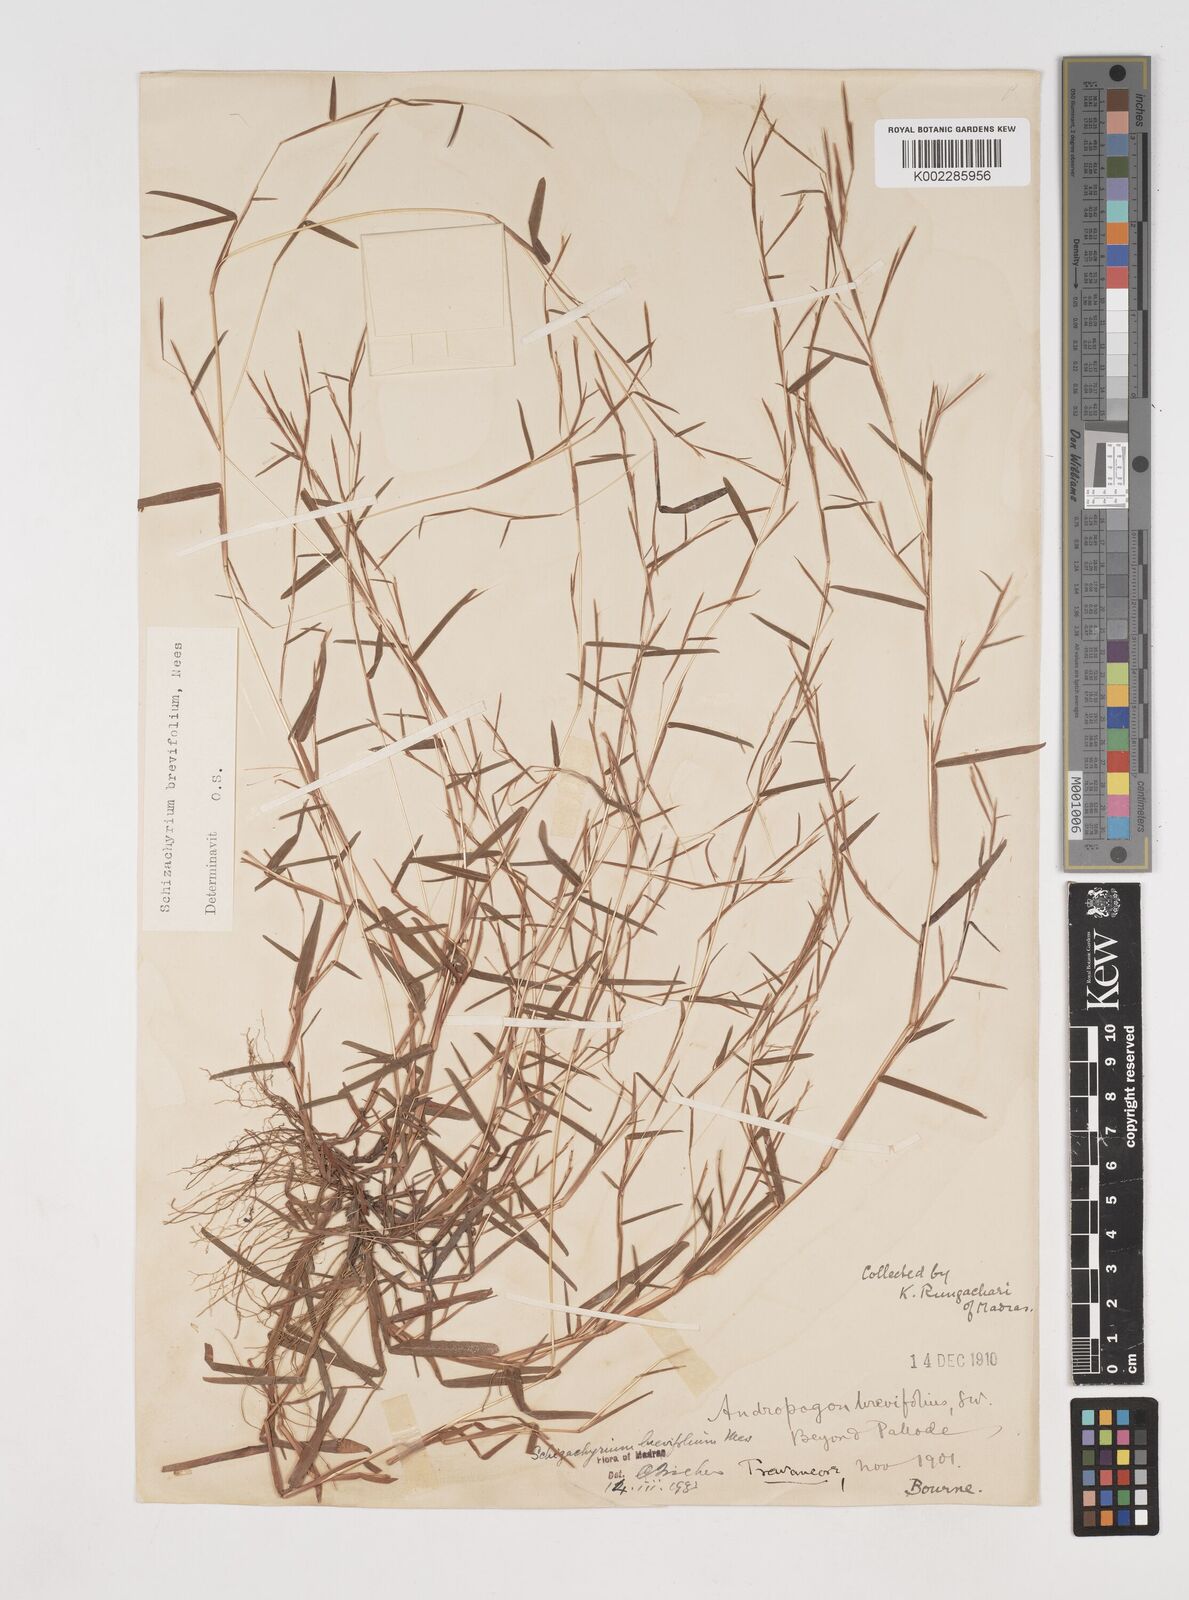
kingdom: Plantae
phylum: Tracheophyta
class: Liliopsida
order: Poales
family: Poaceae
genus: Schizachyrium
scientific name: Schizachyrium brevifolium
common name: Serillo dulce
